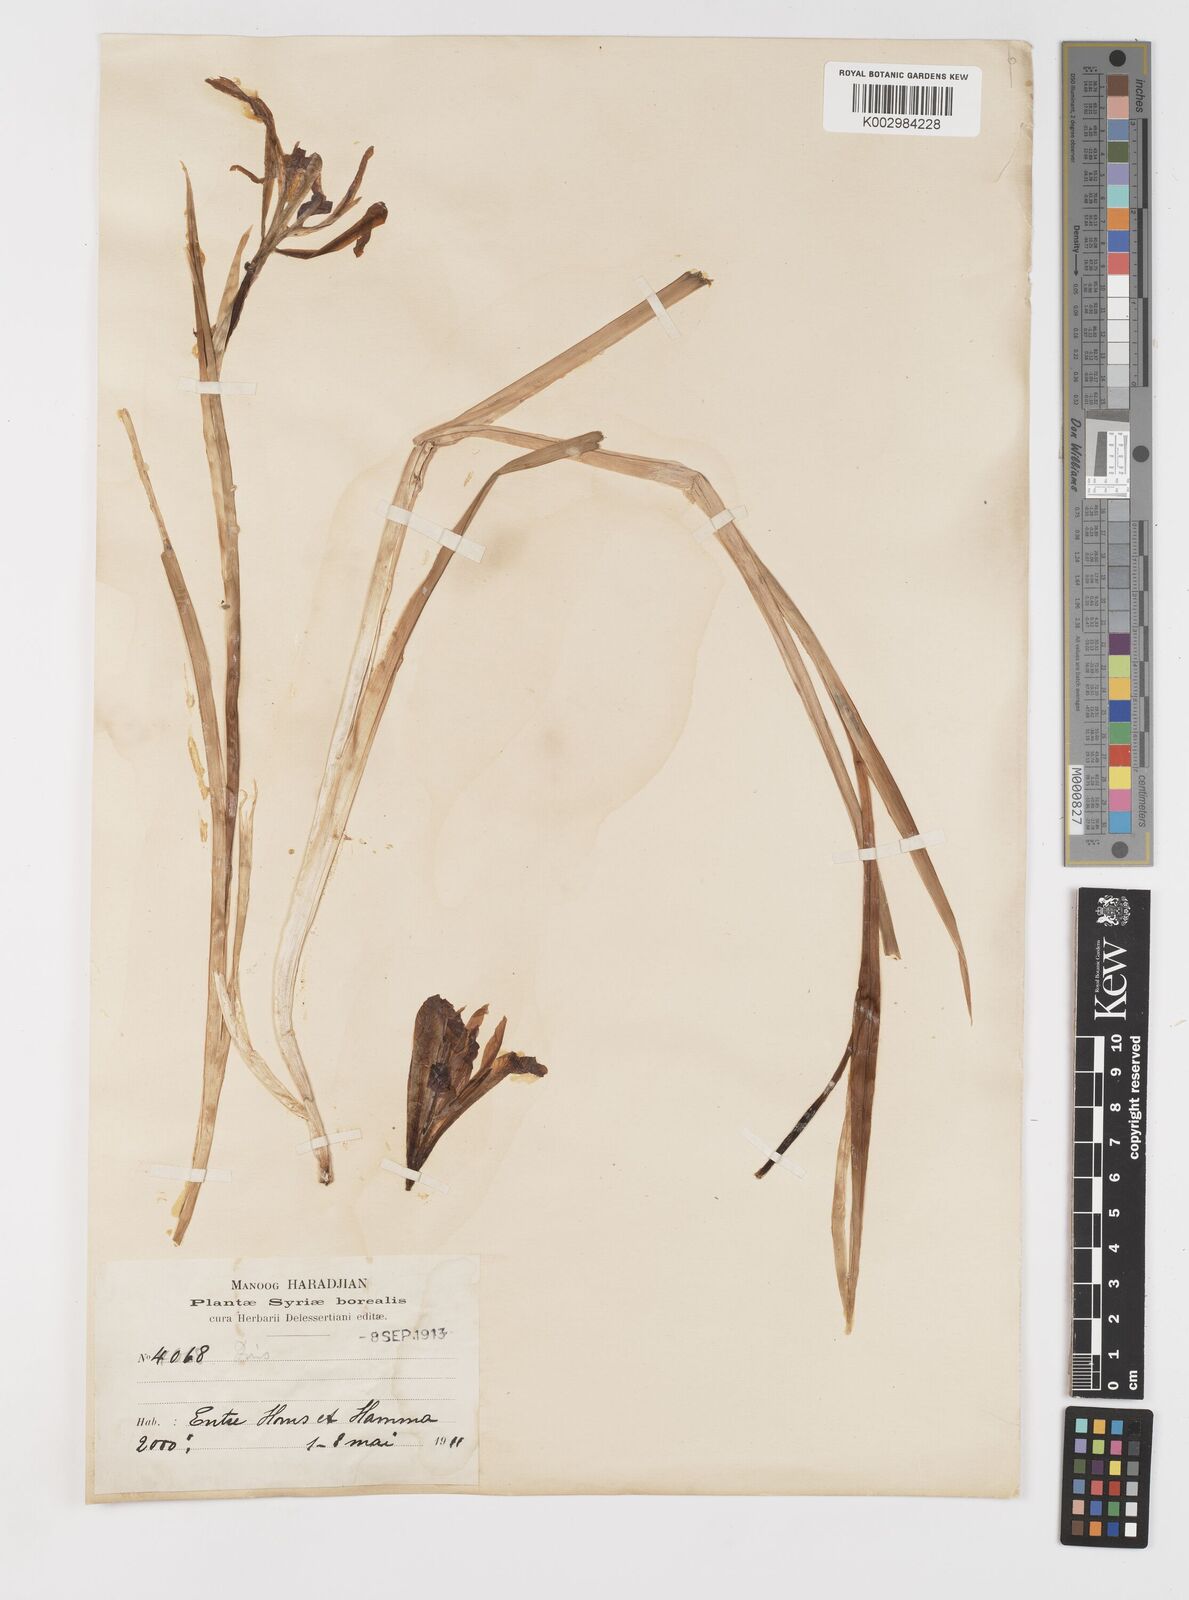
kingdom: Plantae
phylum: Tracheophyta
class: Liliopsida
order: Asparagales
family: Iridaceae
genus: Iris
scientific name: Iris masiae
